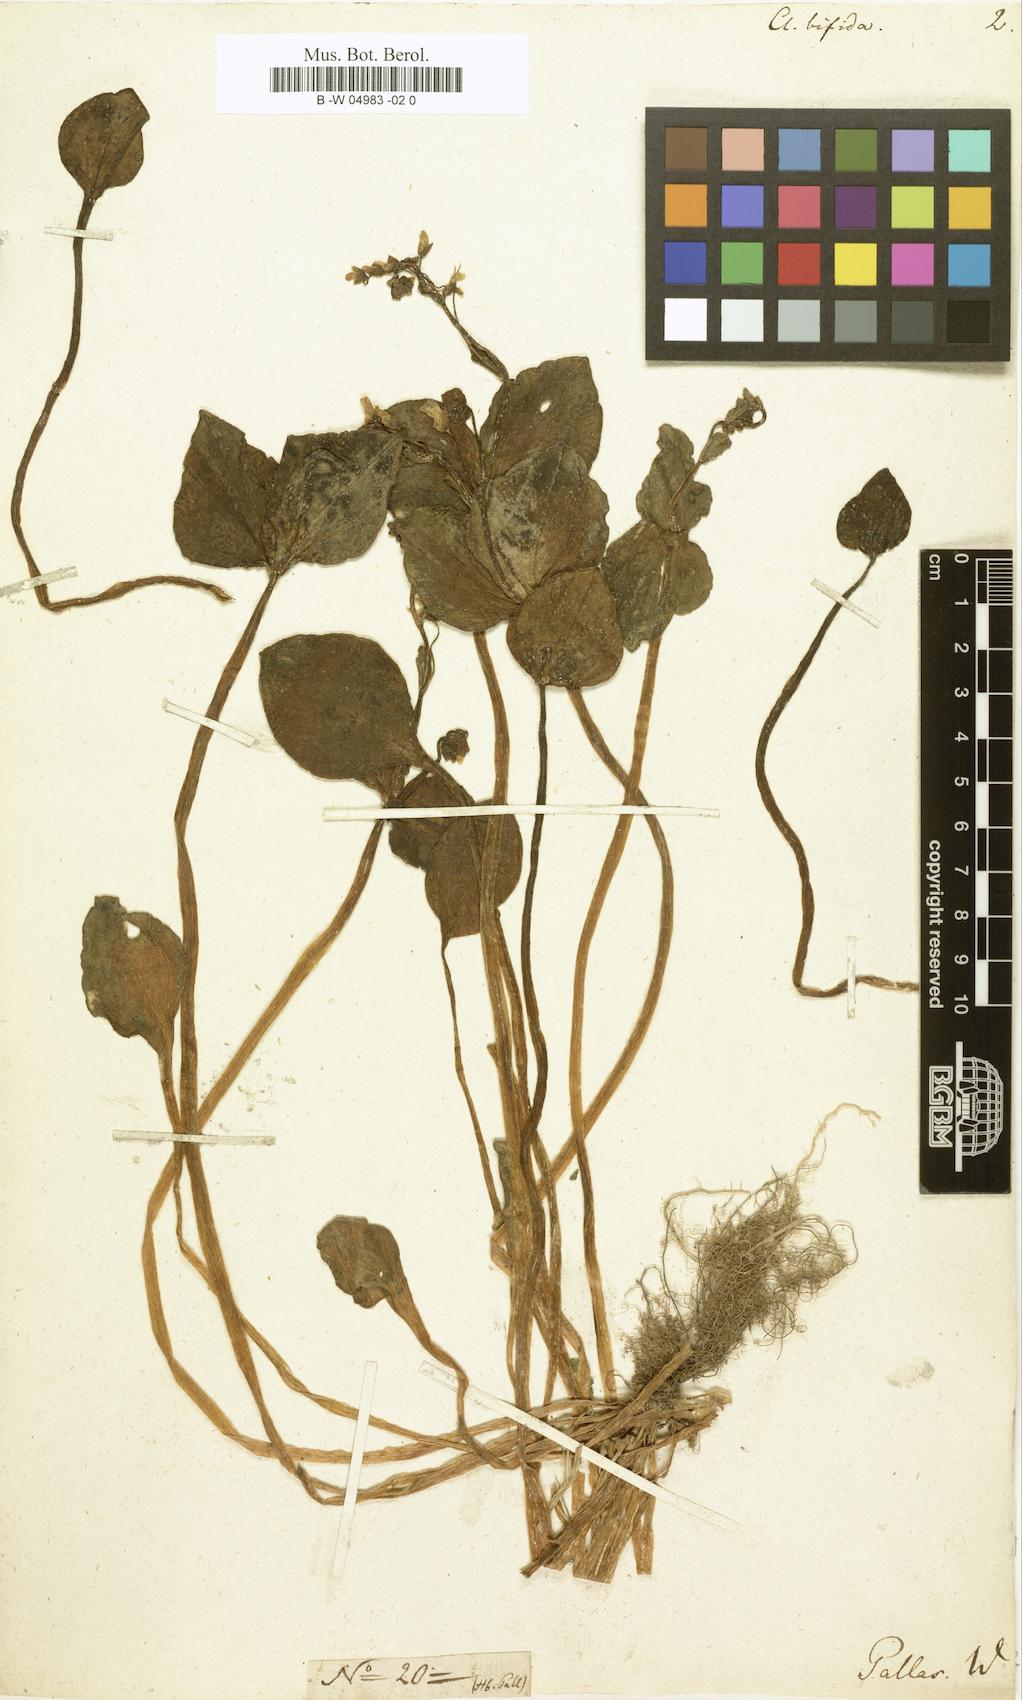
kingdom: Plantae
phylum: Tracheophyta
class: Magnoliopsida
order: Caryophyllales
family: Montiaceae
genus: Claytonia
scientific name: Claytonia sibirica
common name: Pink purslane
